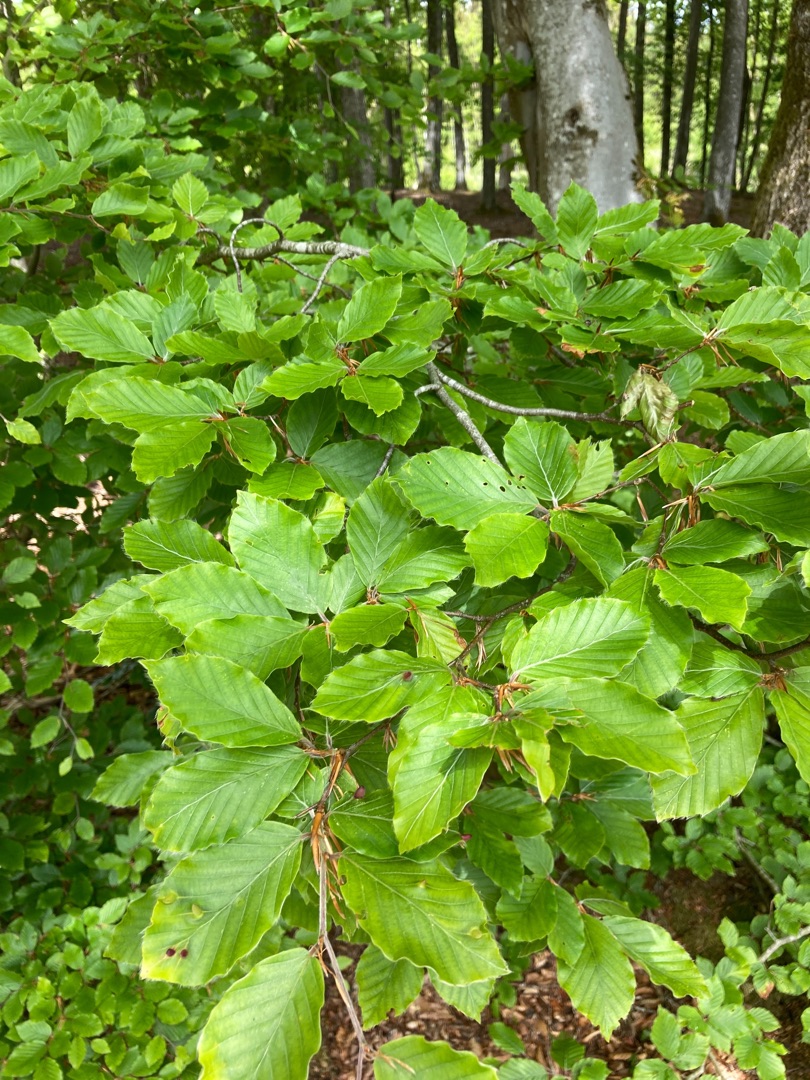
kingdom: Plantae
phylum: Tracheophyta
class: Magnoliopsida
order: Fagales
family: Fagaceae
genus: Fagus
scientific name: Fagus sylvatica
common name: Bøg
